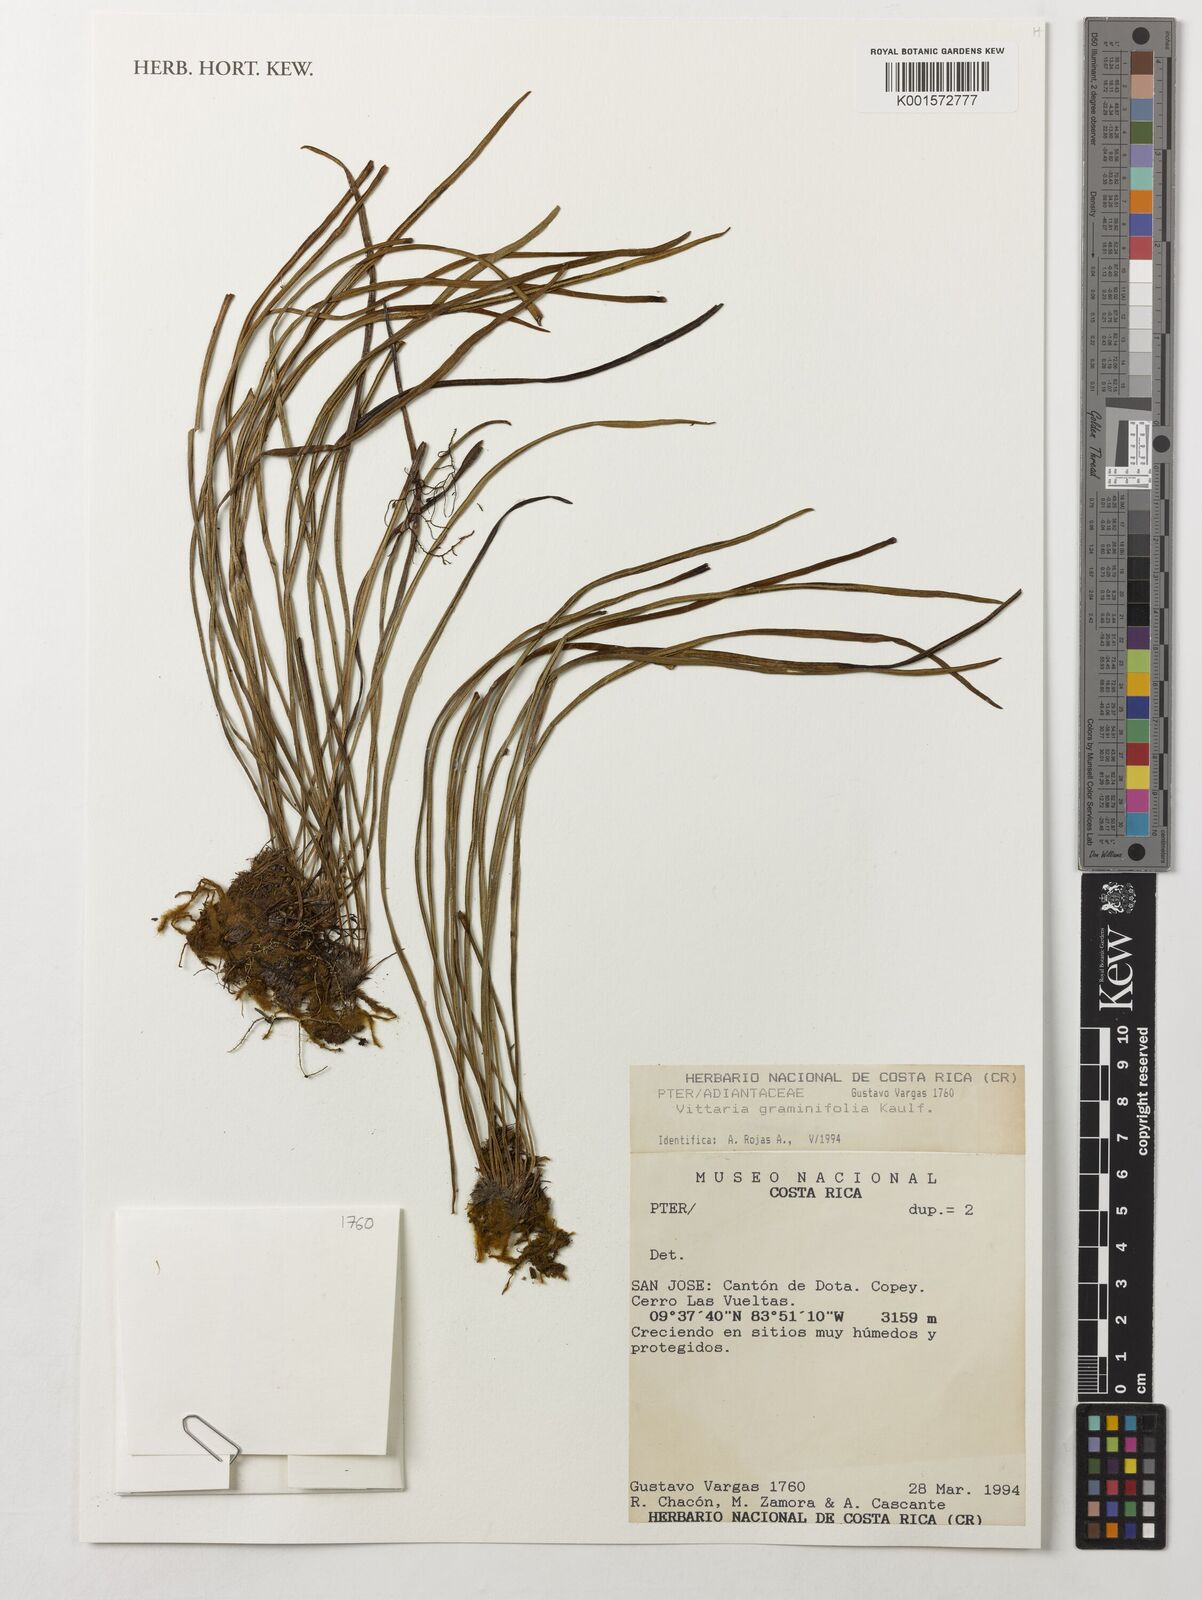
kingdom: Plantae
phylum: Tracheophyta
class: Polypodiopsida
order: Polypodiales
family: Pteridaceae
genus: Vittaria
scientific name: Vittaria graminifolia
